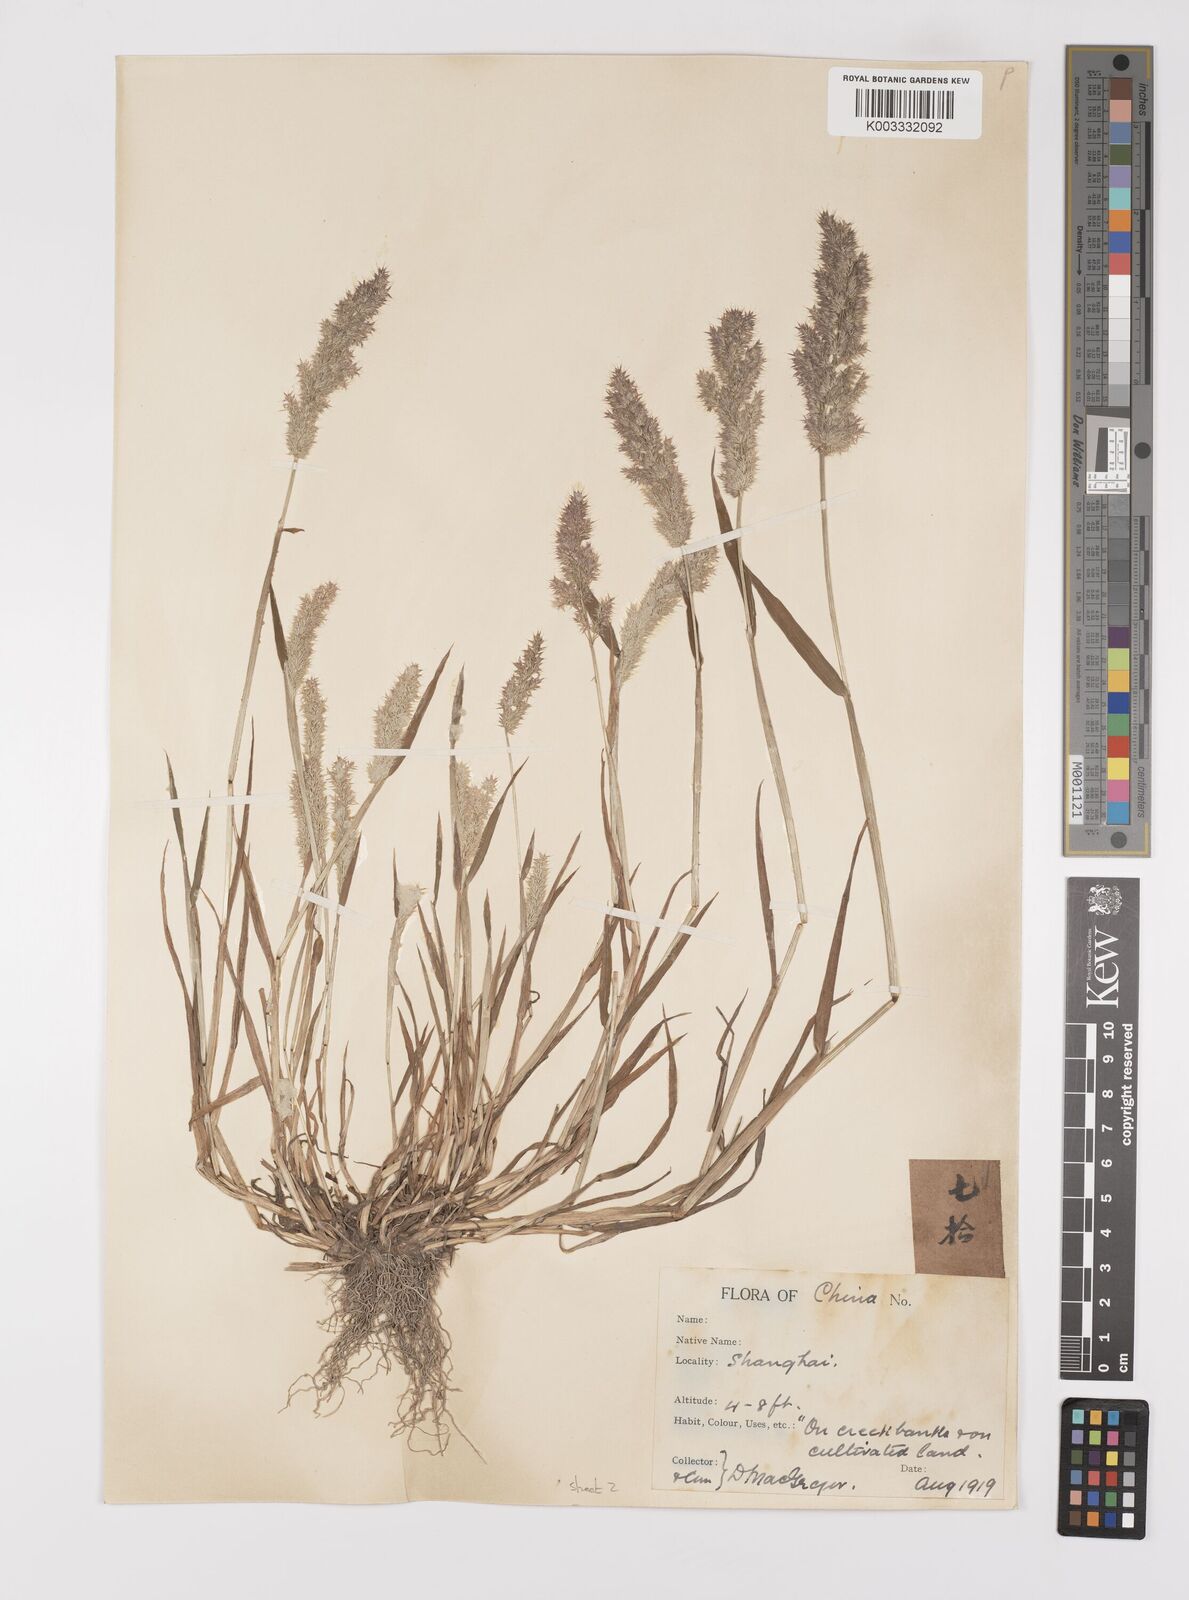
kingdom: Plantae
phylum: Tracheophyta
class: Liliopsida
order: Poales
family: Poaceae
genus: Polypogon
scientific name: Polypogon fugax
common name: Asia minor bluegrass
